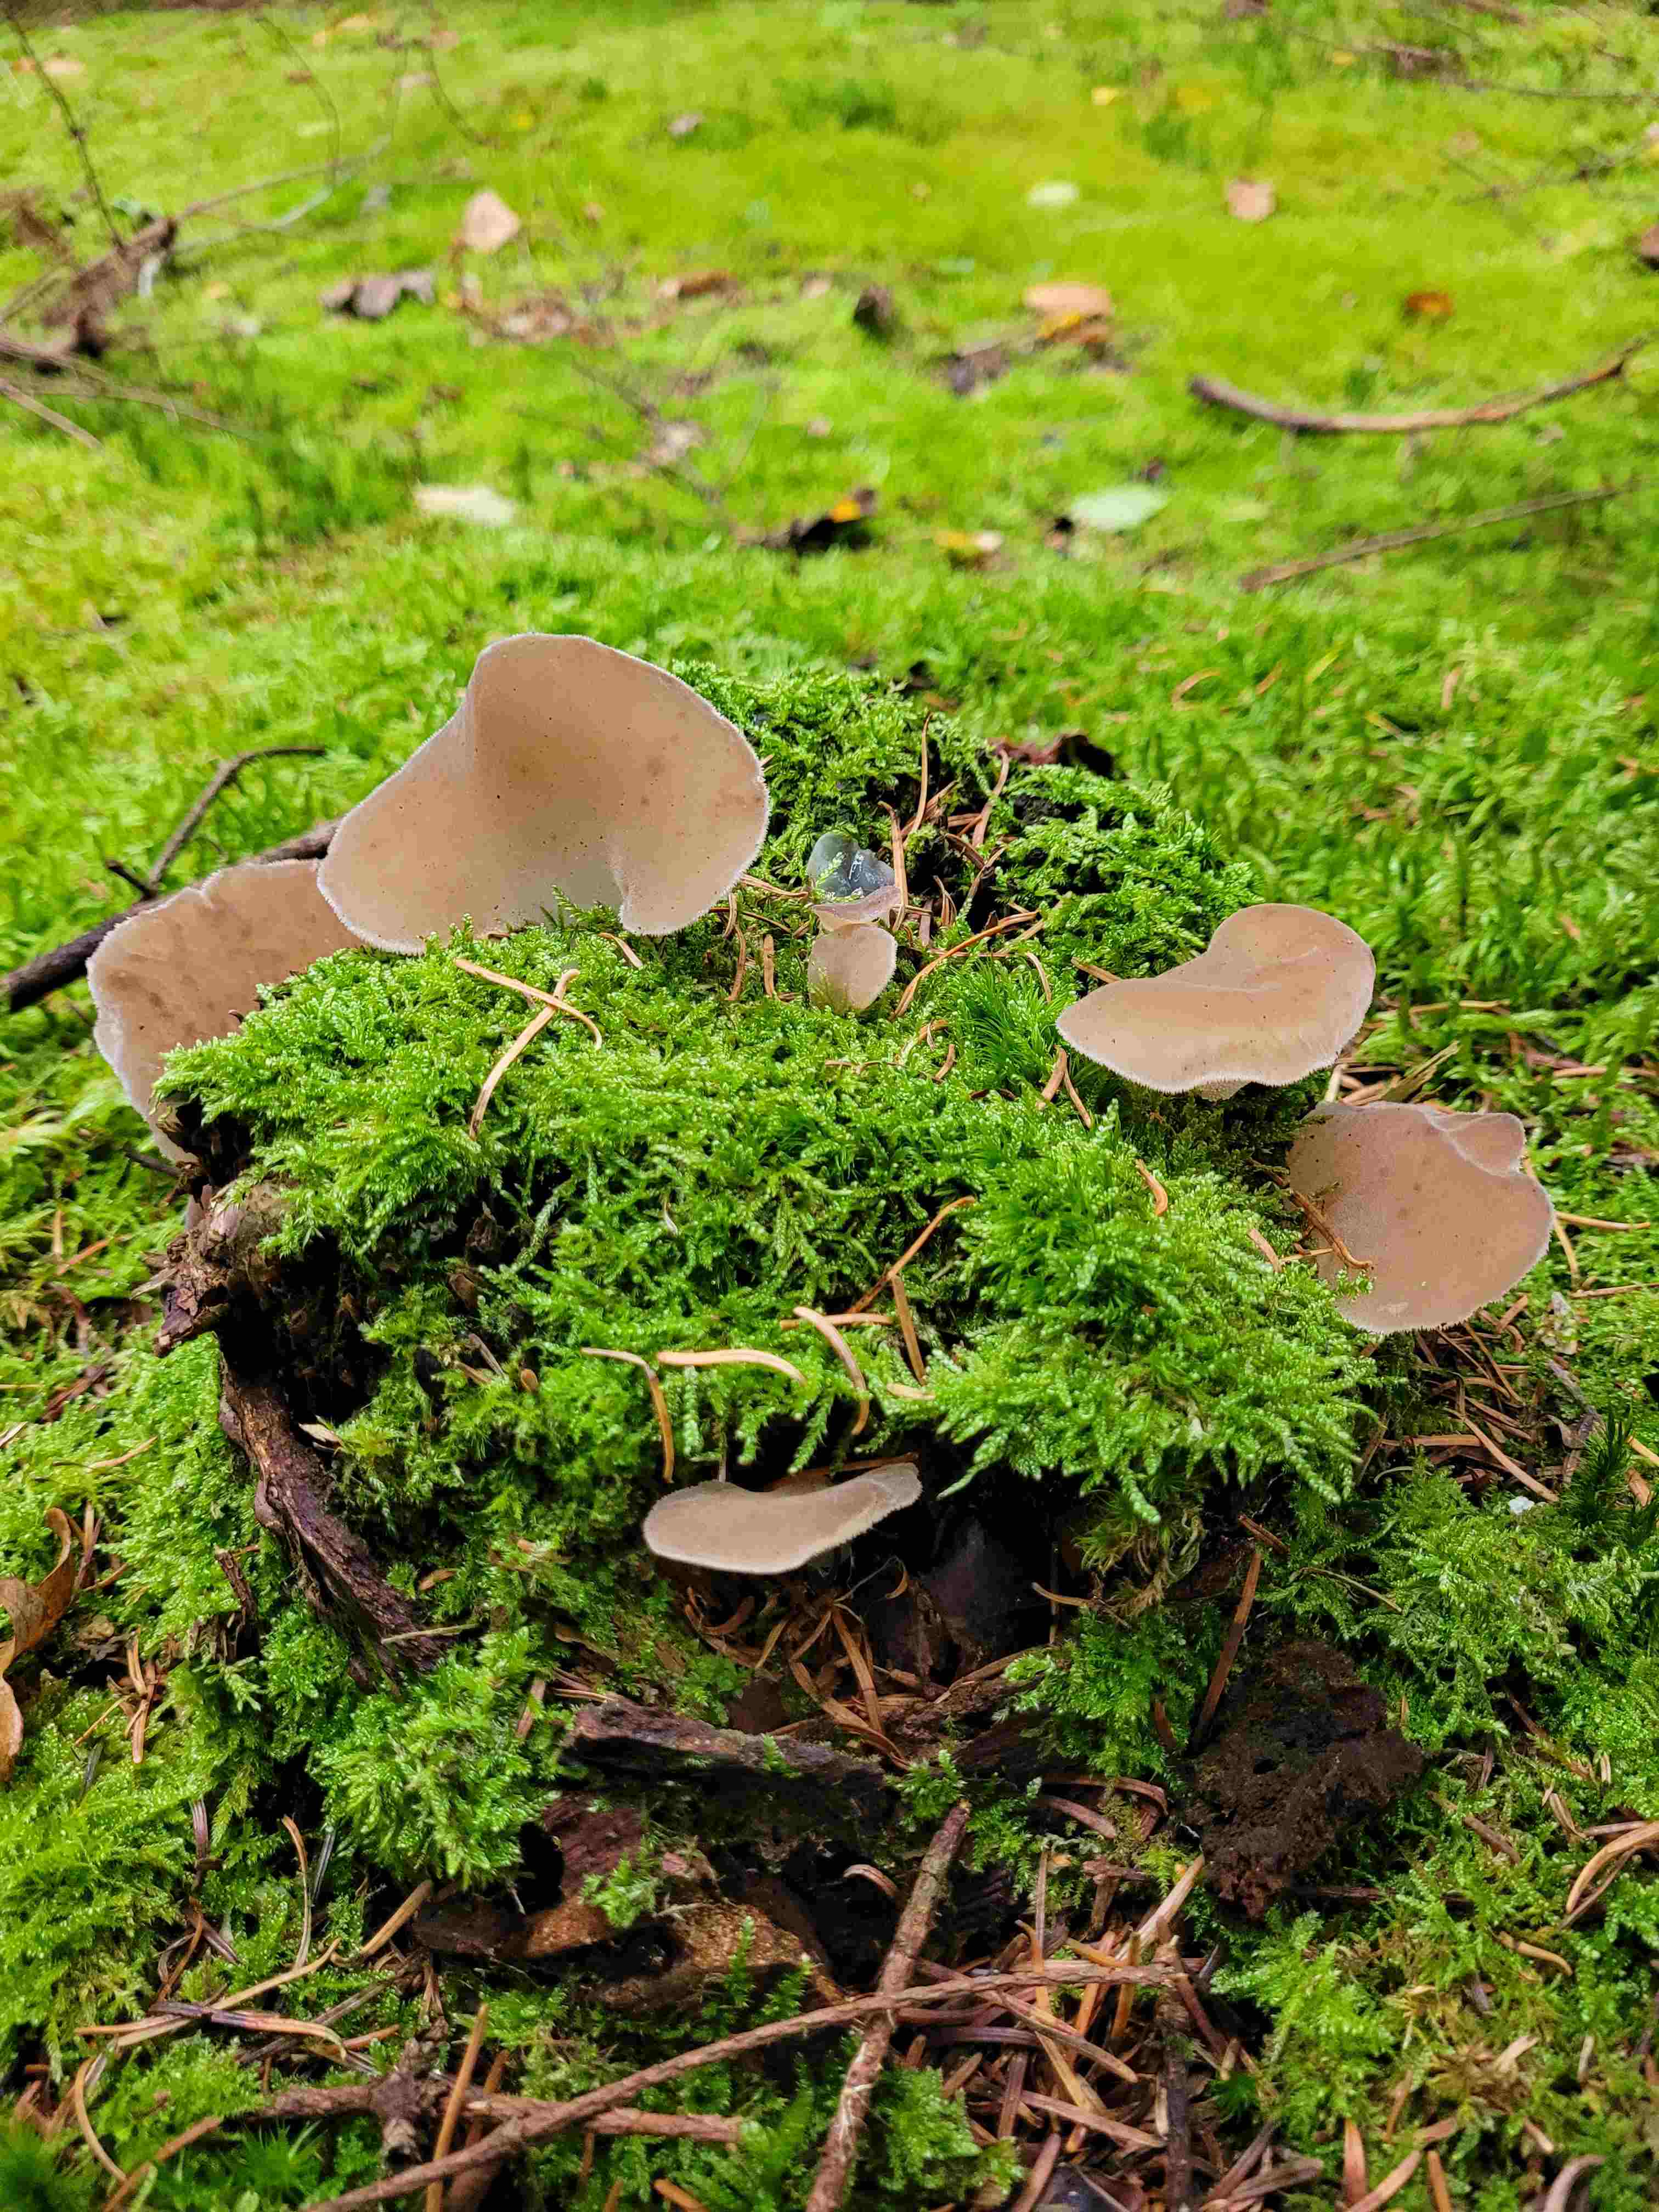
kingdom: Fungi
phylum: Basidiomycota
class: Agaricomycetes
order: Auriculariales
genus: Pseudohydnum
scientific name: Pseudohydnum gelatinosum
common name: bævretand
